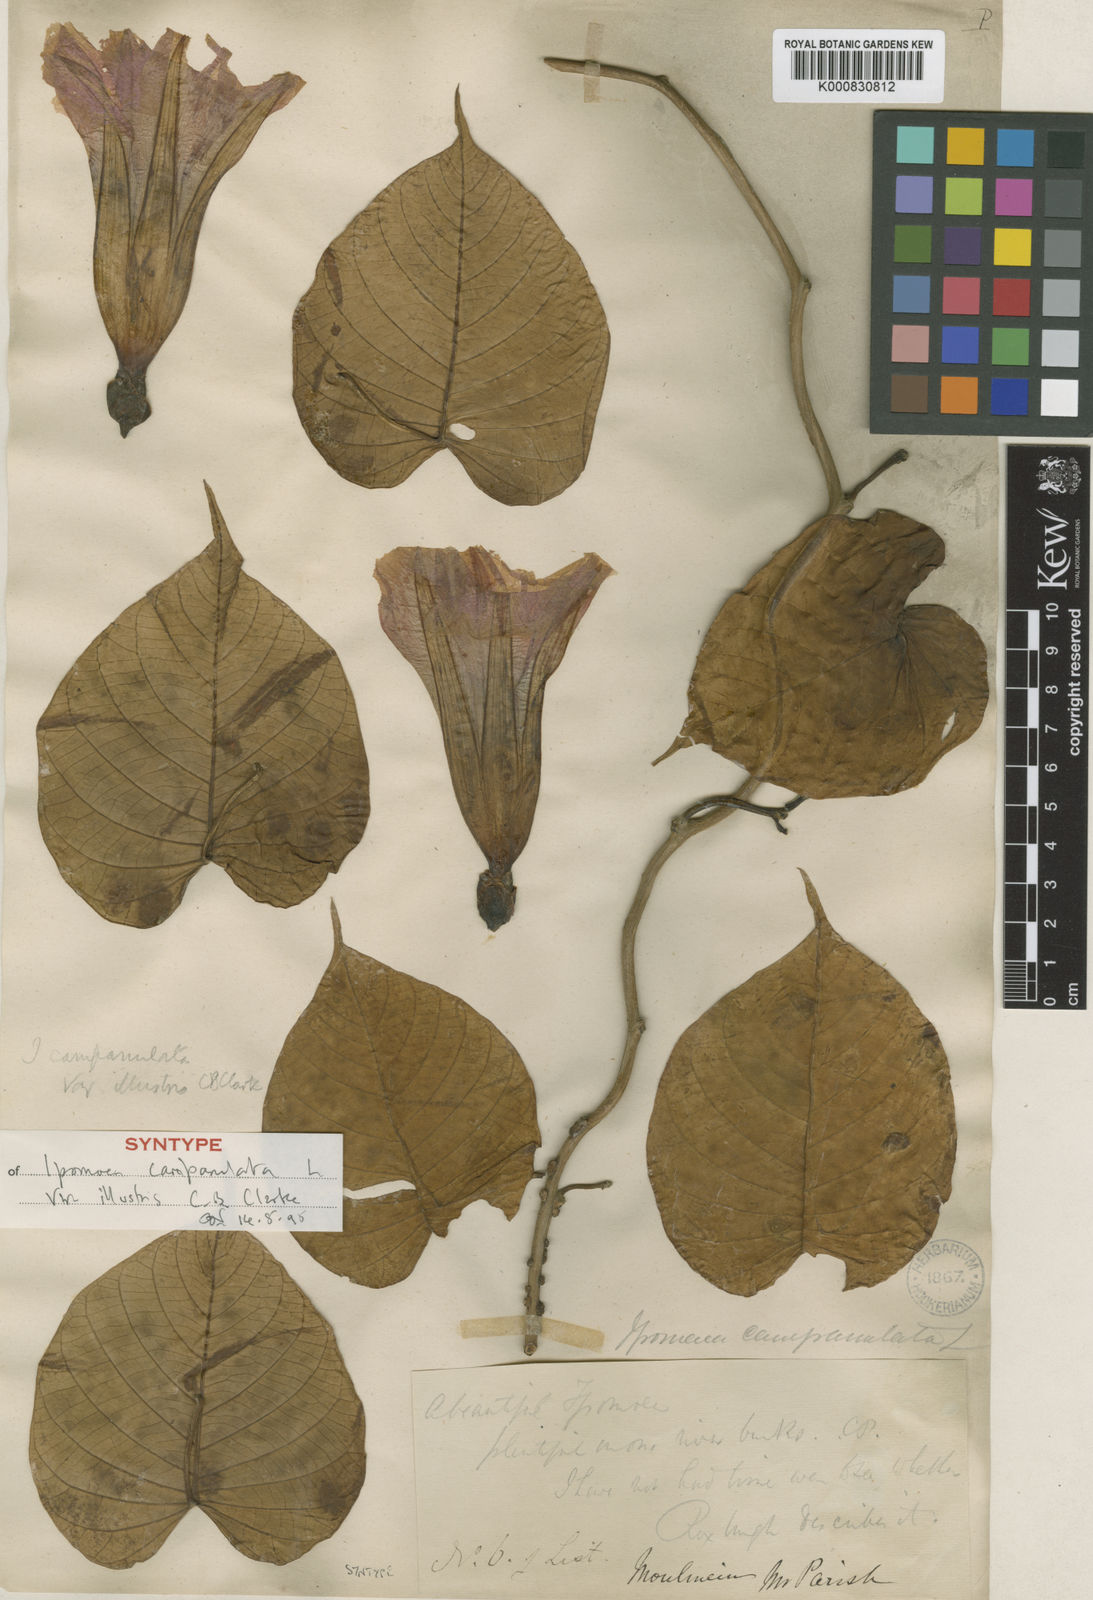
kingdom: Plantae
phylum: Tracheophyta
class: Magnoliopsida
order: Solanales
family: Convolvulaceae
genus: Ipomoea
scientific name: Ipomoea campanulata
